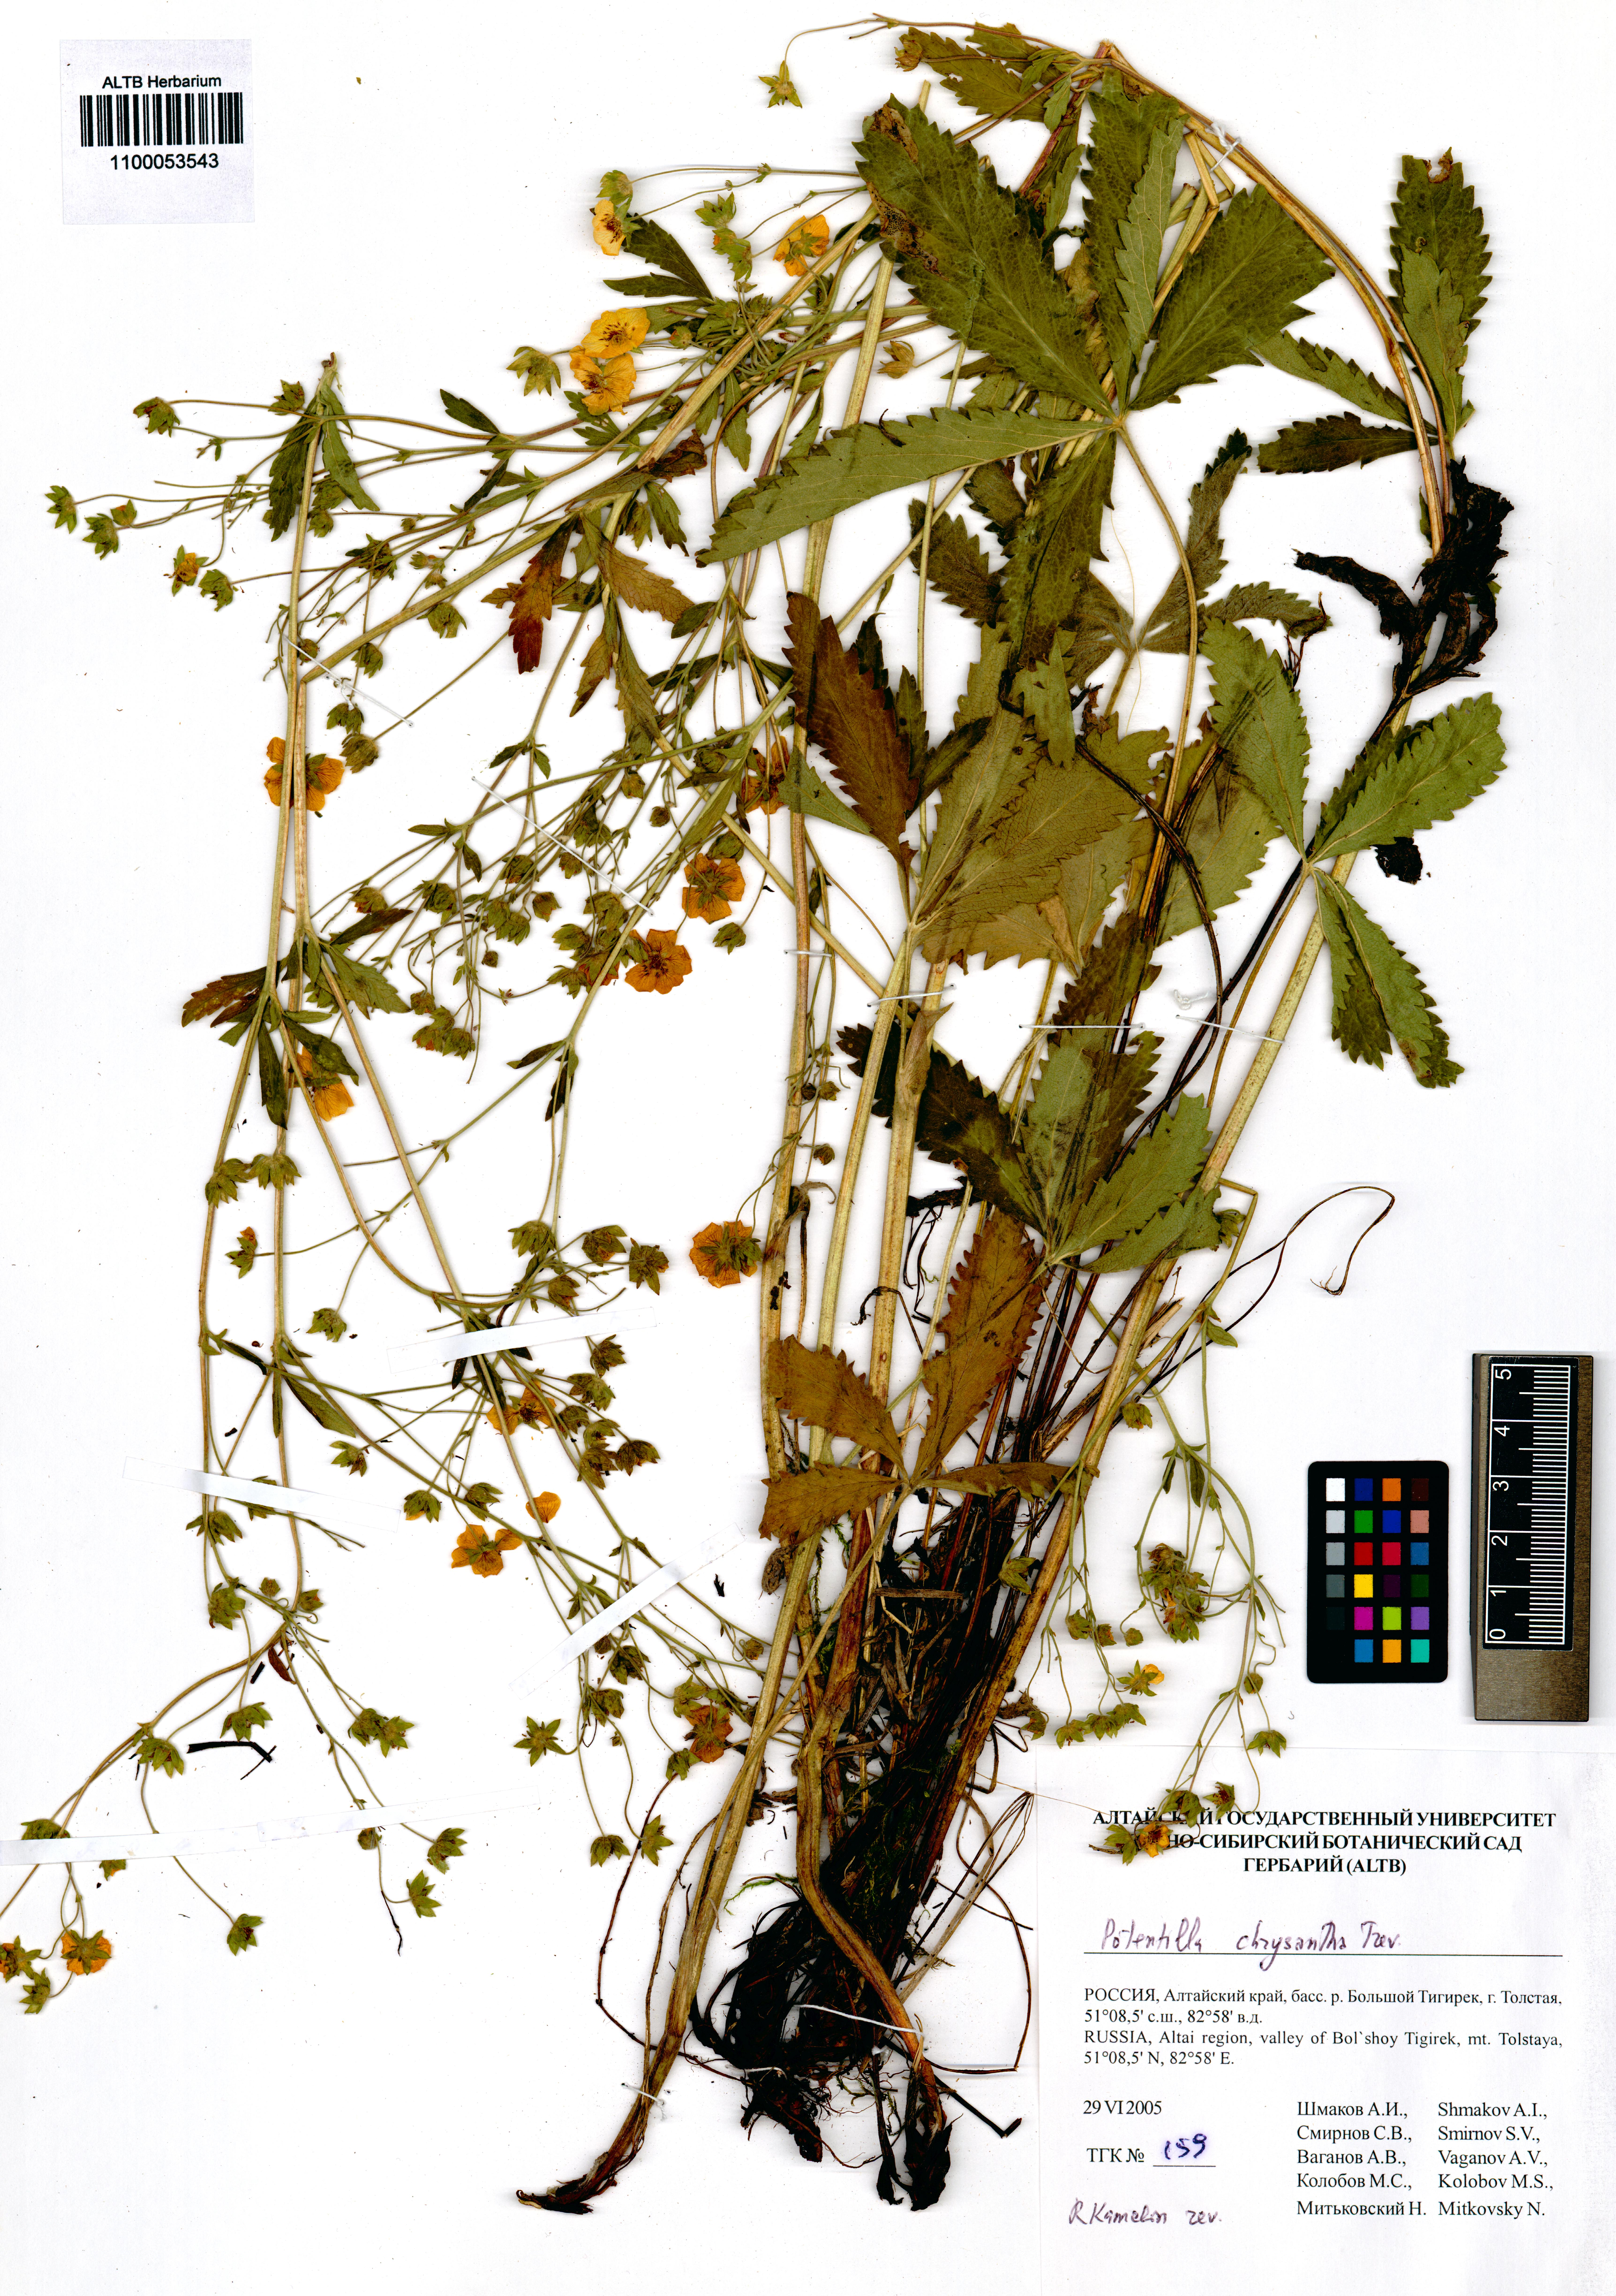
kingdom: Plantae
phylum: Tracheophyta
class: Magnoliopsida
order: Rosales
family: Rosaceae
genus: Potentilla
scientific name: Potentilla chrysantha
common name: Thuringian cinquefoil
